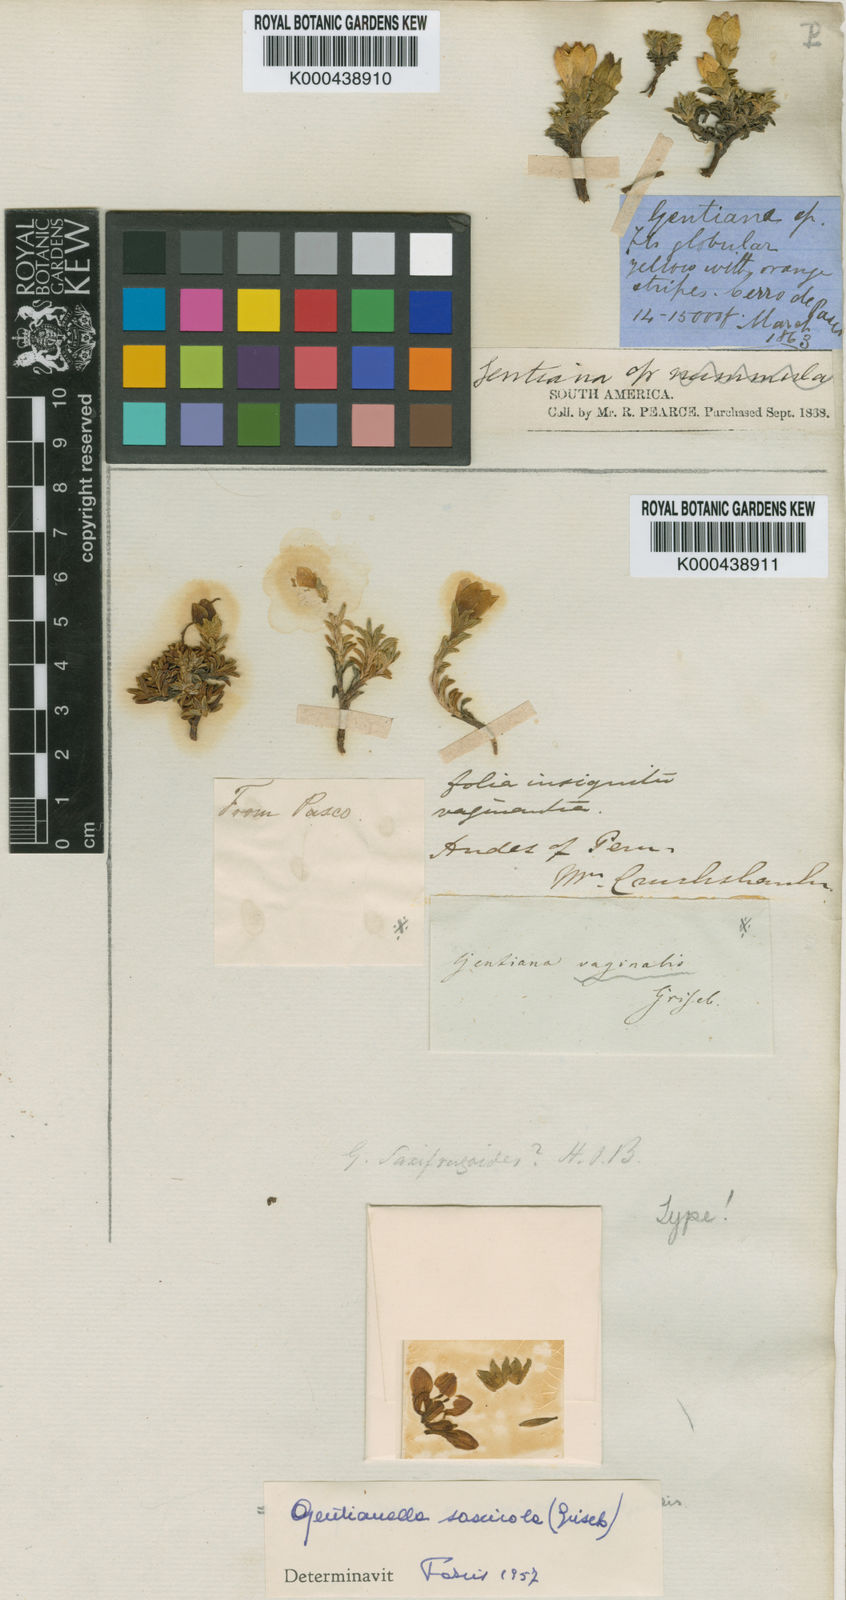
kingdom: Plantae
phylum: Tracheophyta
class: Magnoliopsida
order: Gentianales
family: Gentianaceae
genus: Gentianella
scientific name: Gentianella primuloides
